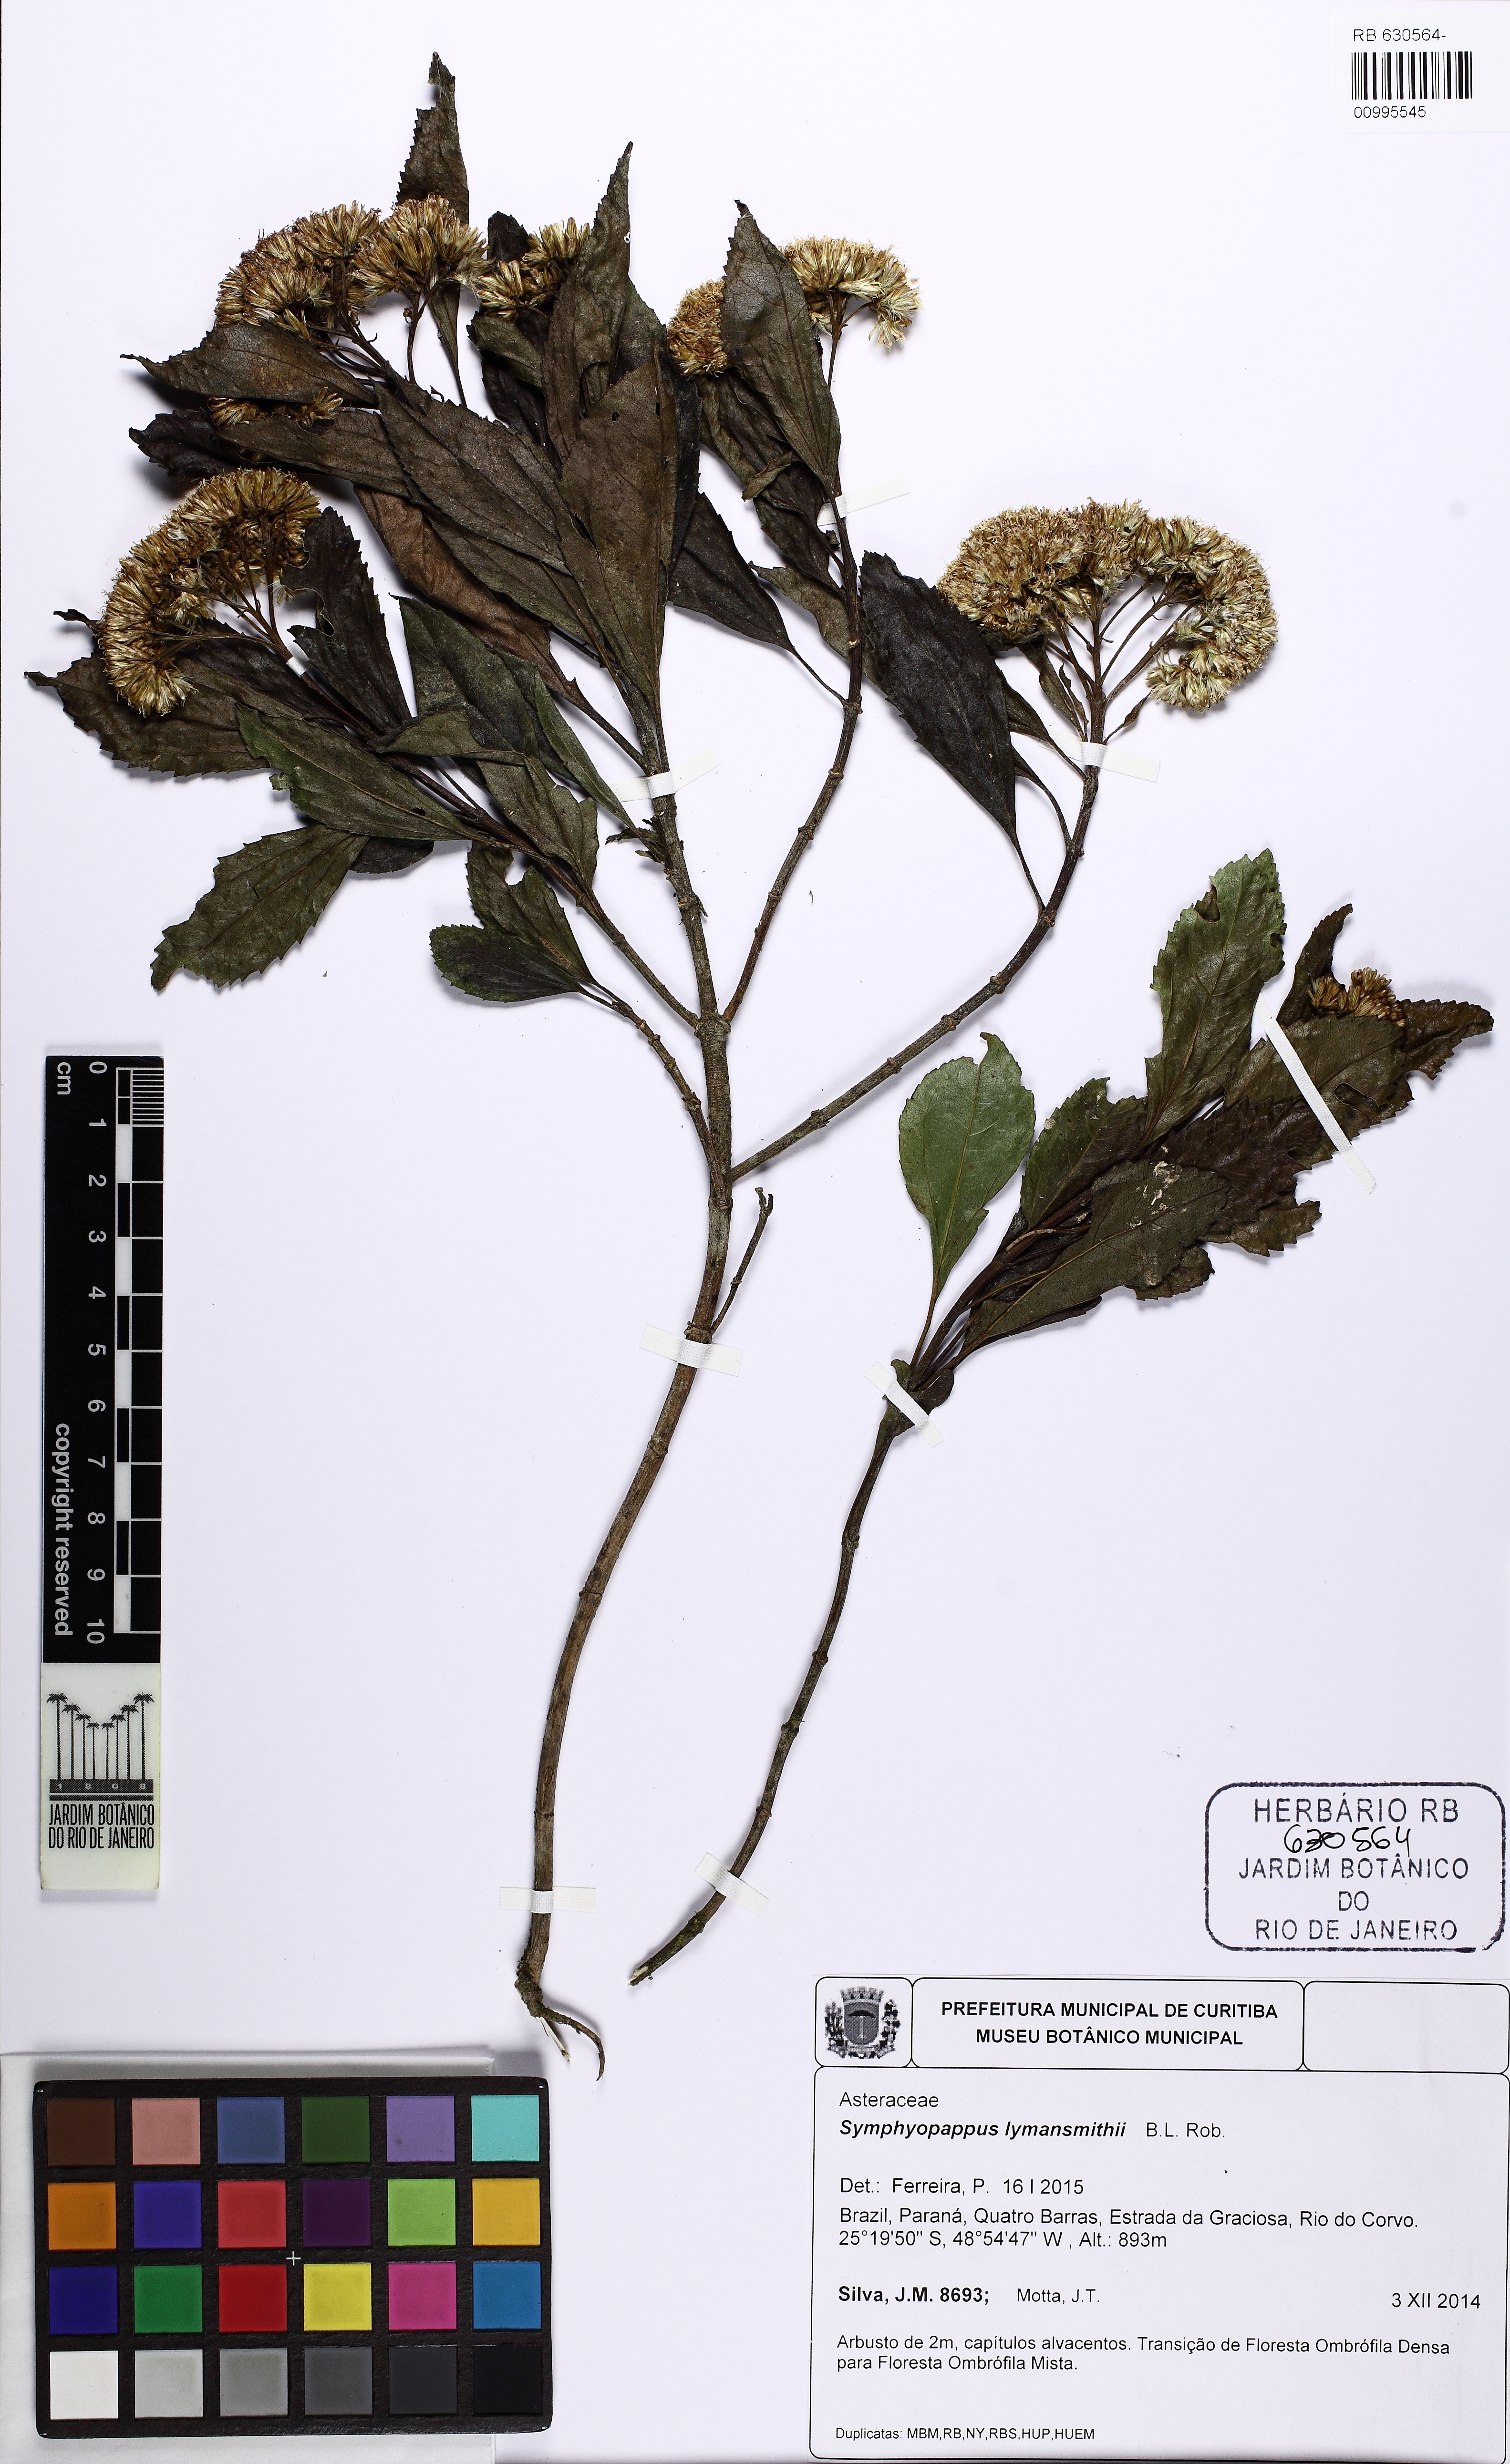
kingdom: Plantae
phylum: Tracheophyta
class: Magnoliopsida
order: Asterales
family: Asteraceae
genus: Symphyopappus
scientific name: Symphyopappus lymansmithii
